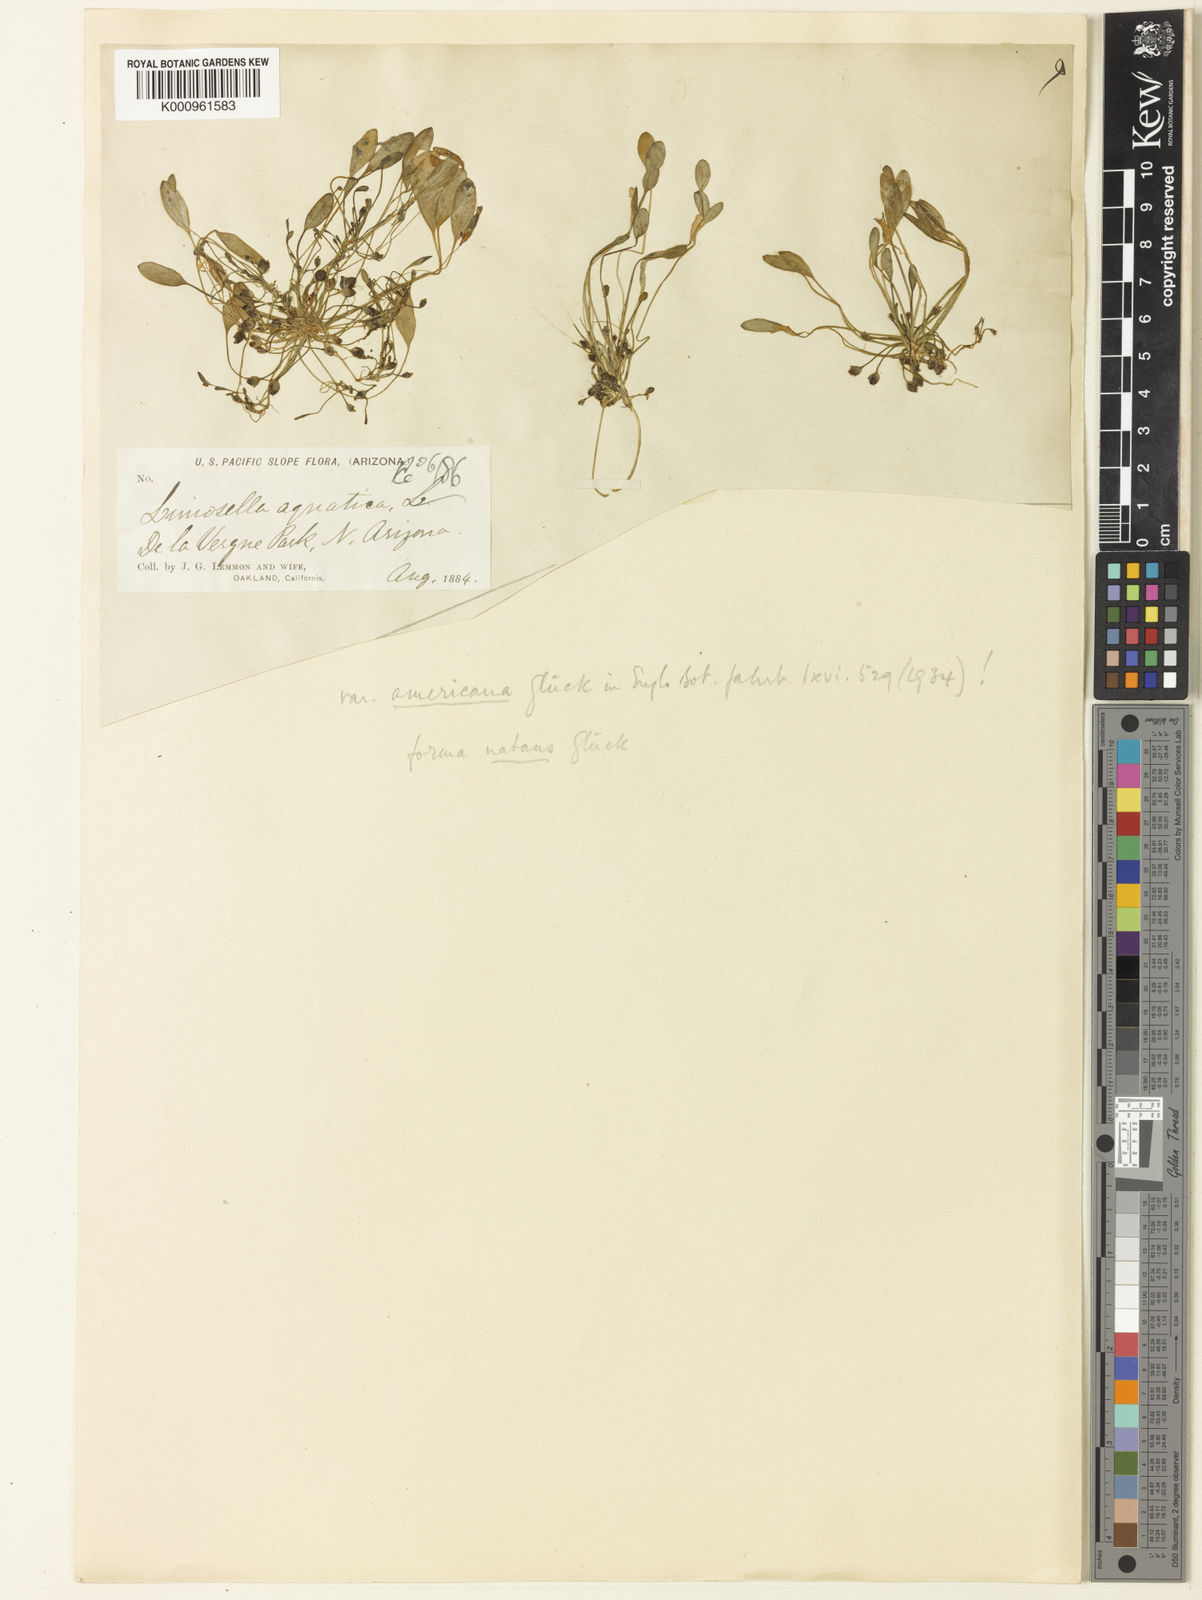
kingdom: Plantae
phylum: Tracheophyta
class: Magnoliopsida
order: Lamiales
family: Scrophulariaceae
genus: Limosella
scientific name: Limosella aquatica
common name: Mudwort
